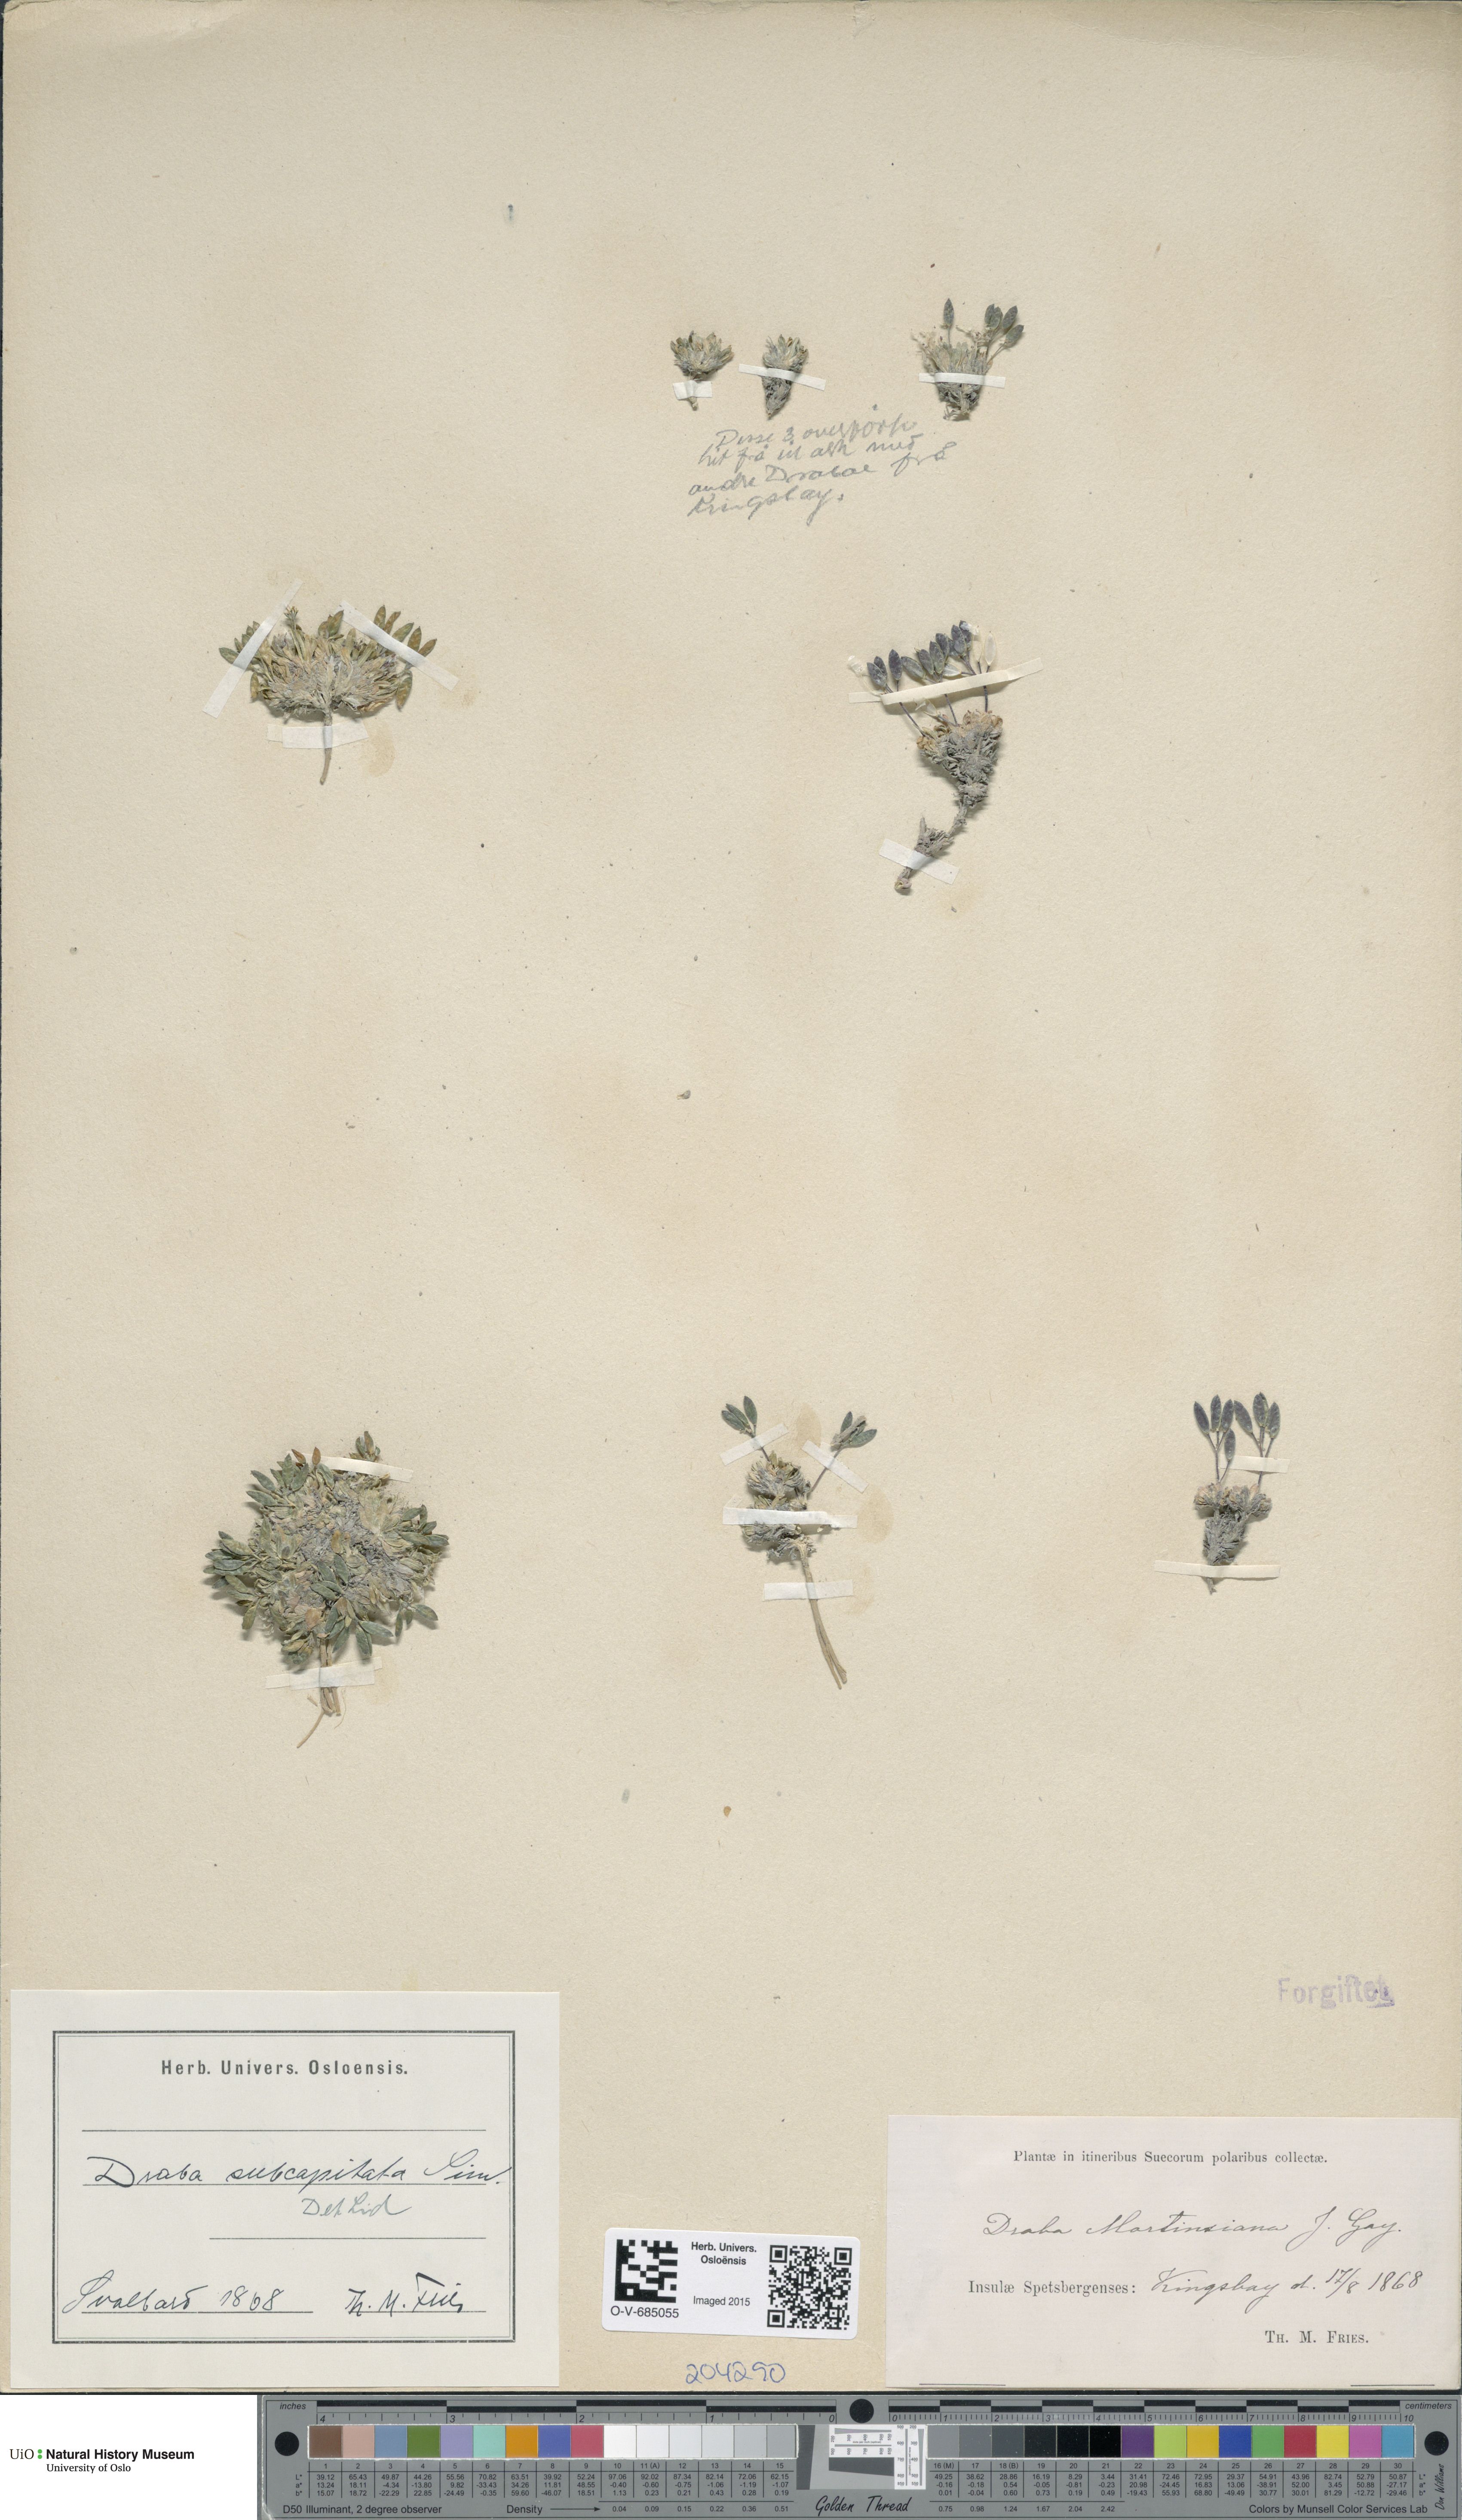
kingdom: Plantae
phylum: Tracheophyta
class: Magnoliopsida
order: Brassicales
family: Brassicaceae
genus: Draba
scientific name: Draba subcapitata
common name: Ellesmere island draba
